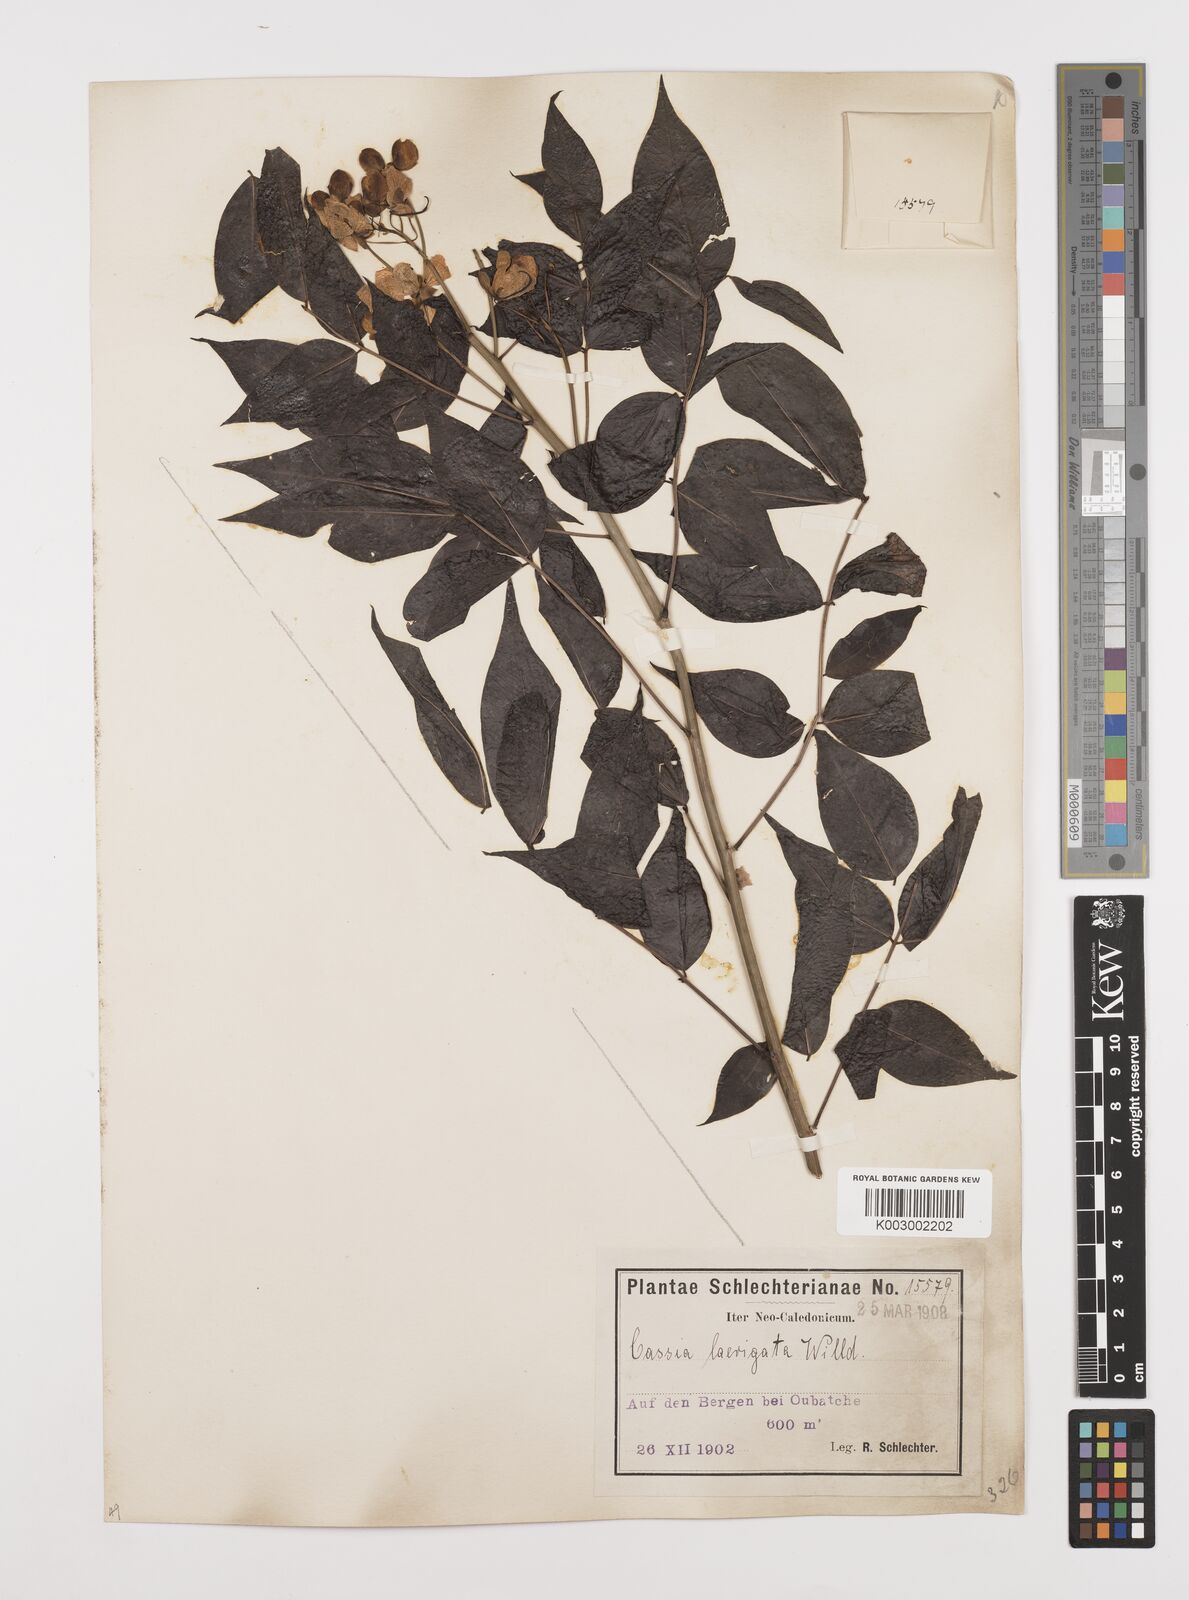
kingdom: Plantae
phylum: Tracheophyta
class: Magnoliopsida
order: Fabales
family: Fabaceae
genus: Senna
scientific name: Senna septemtrionalis
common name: Arsenic bush
